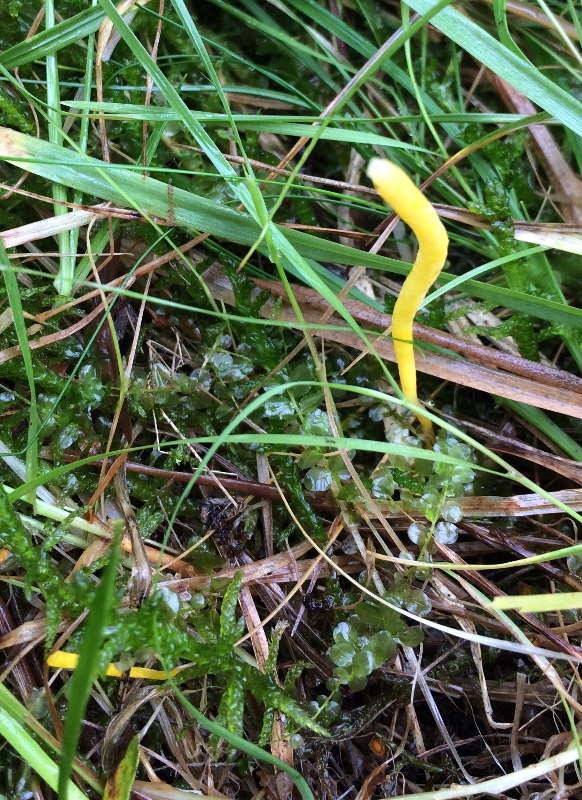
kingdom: Fungi
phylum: Basidiomycota
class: Agaricomycetes
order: Agaricales
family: Clavariaceae
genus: Clavulinopsis
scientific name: Clavulinopsis helvola
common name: orangegul køllesvamp
